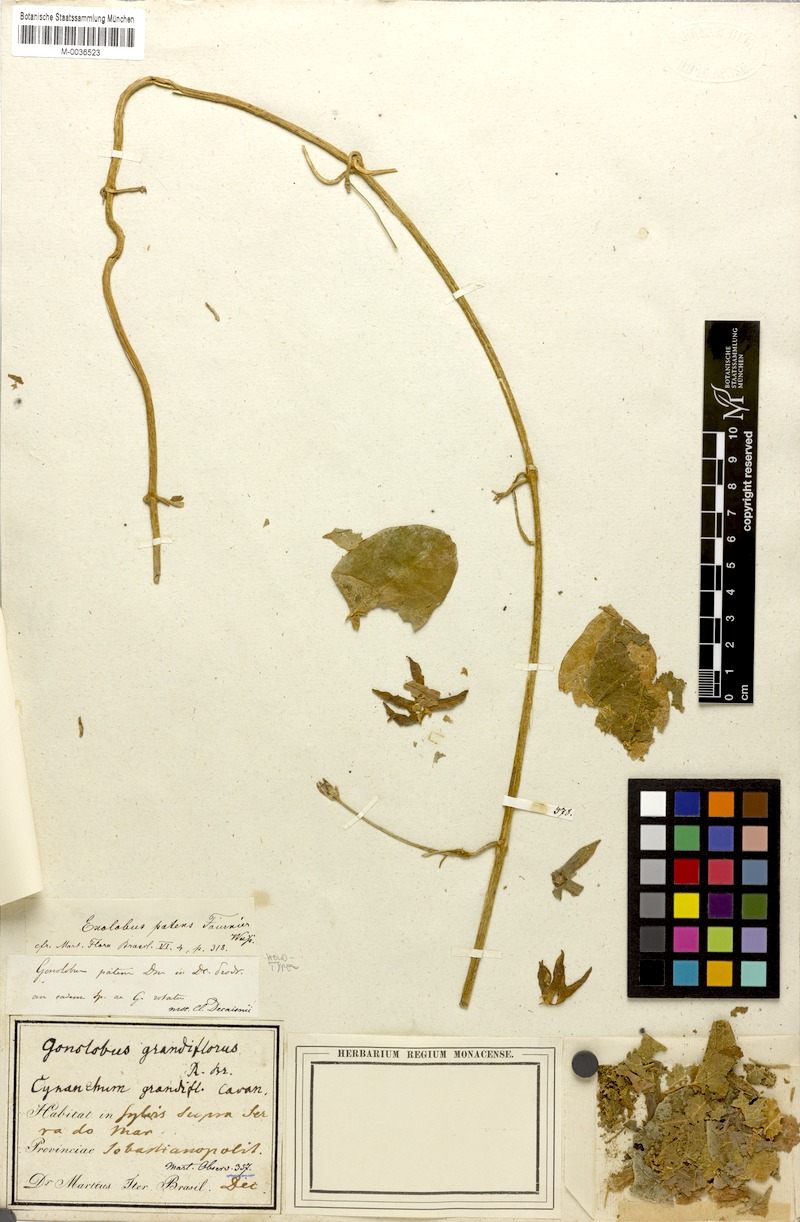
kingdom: Plantae
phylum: Tracheophyta
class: Magnoliopsida
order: Gentianales
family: Apocynaceae
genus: Gonolobus
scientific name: Gonolobus rostratus
